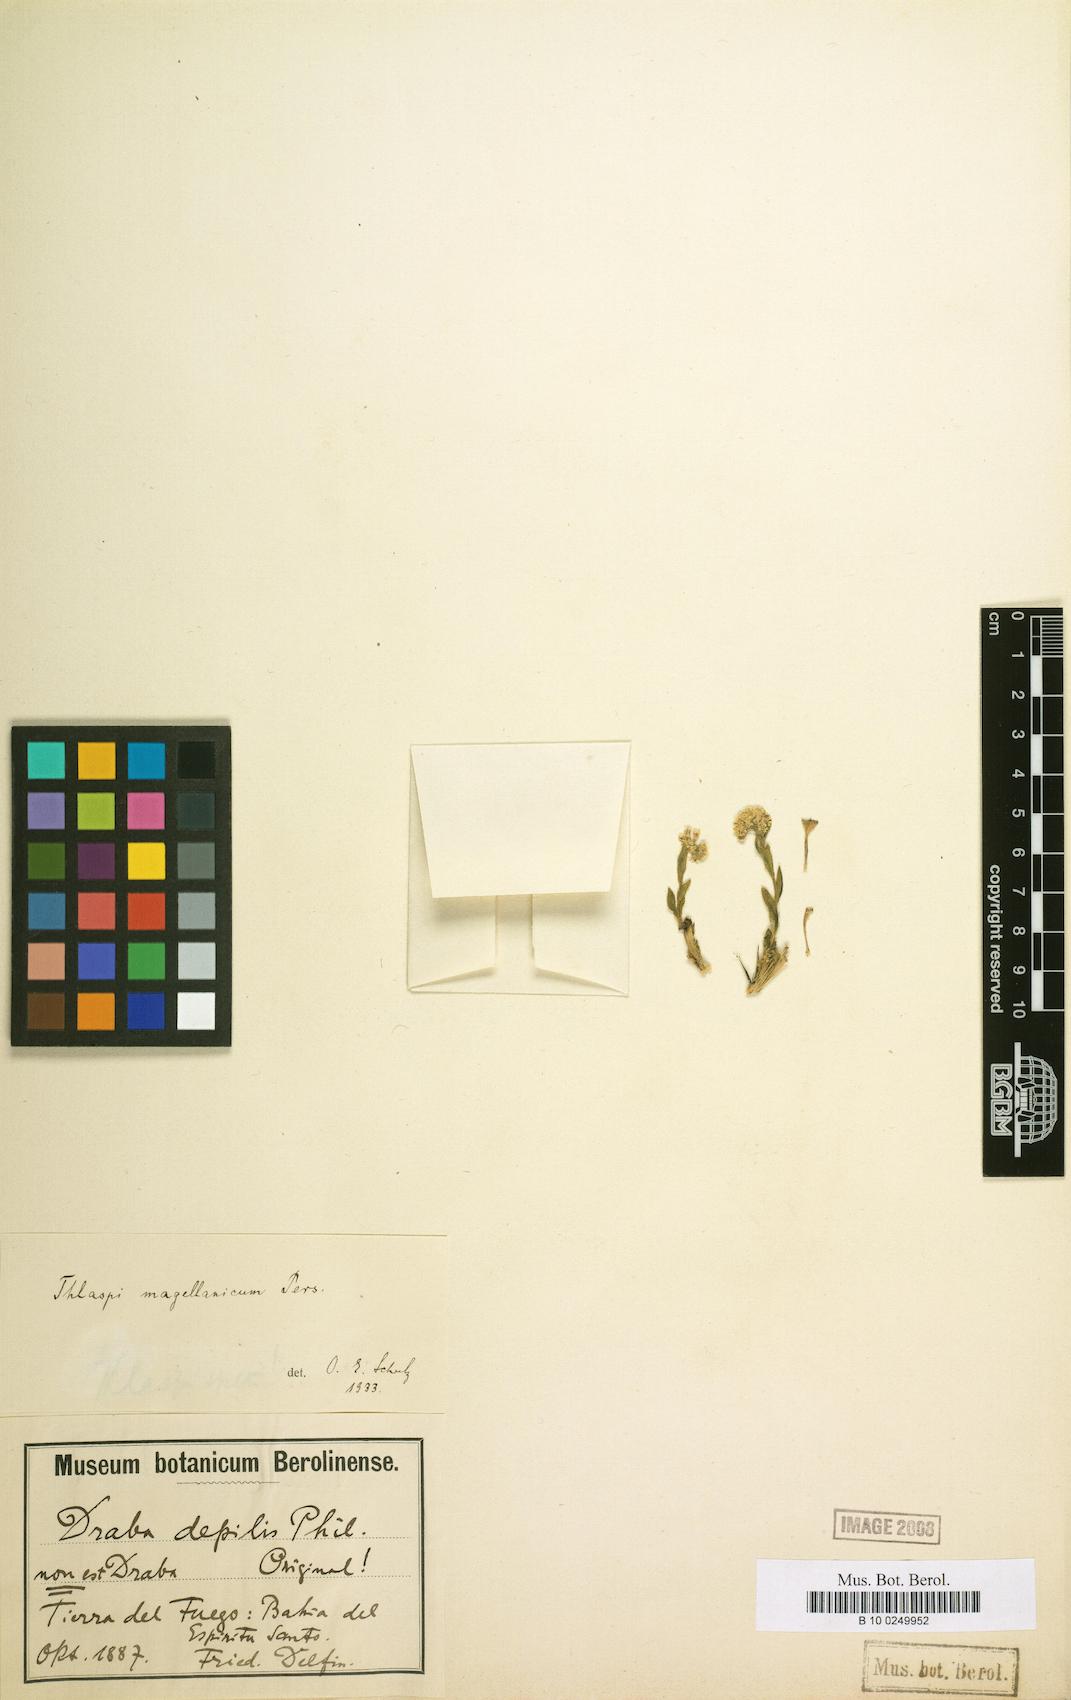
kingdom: Plantae
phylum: Tracheophyta
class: Magnoliopsida
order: Brassicales
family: Brassicaceae
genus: Noccaea
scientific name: Noccaea magellanica
